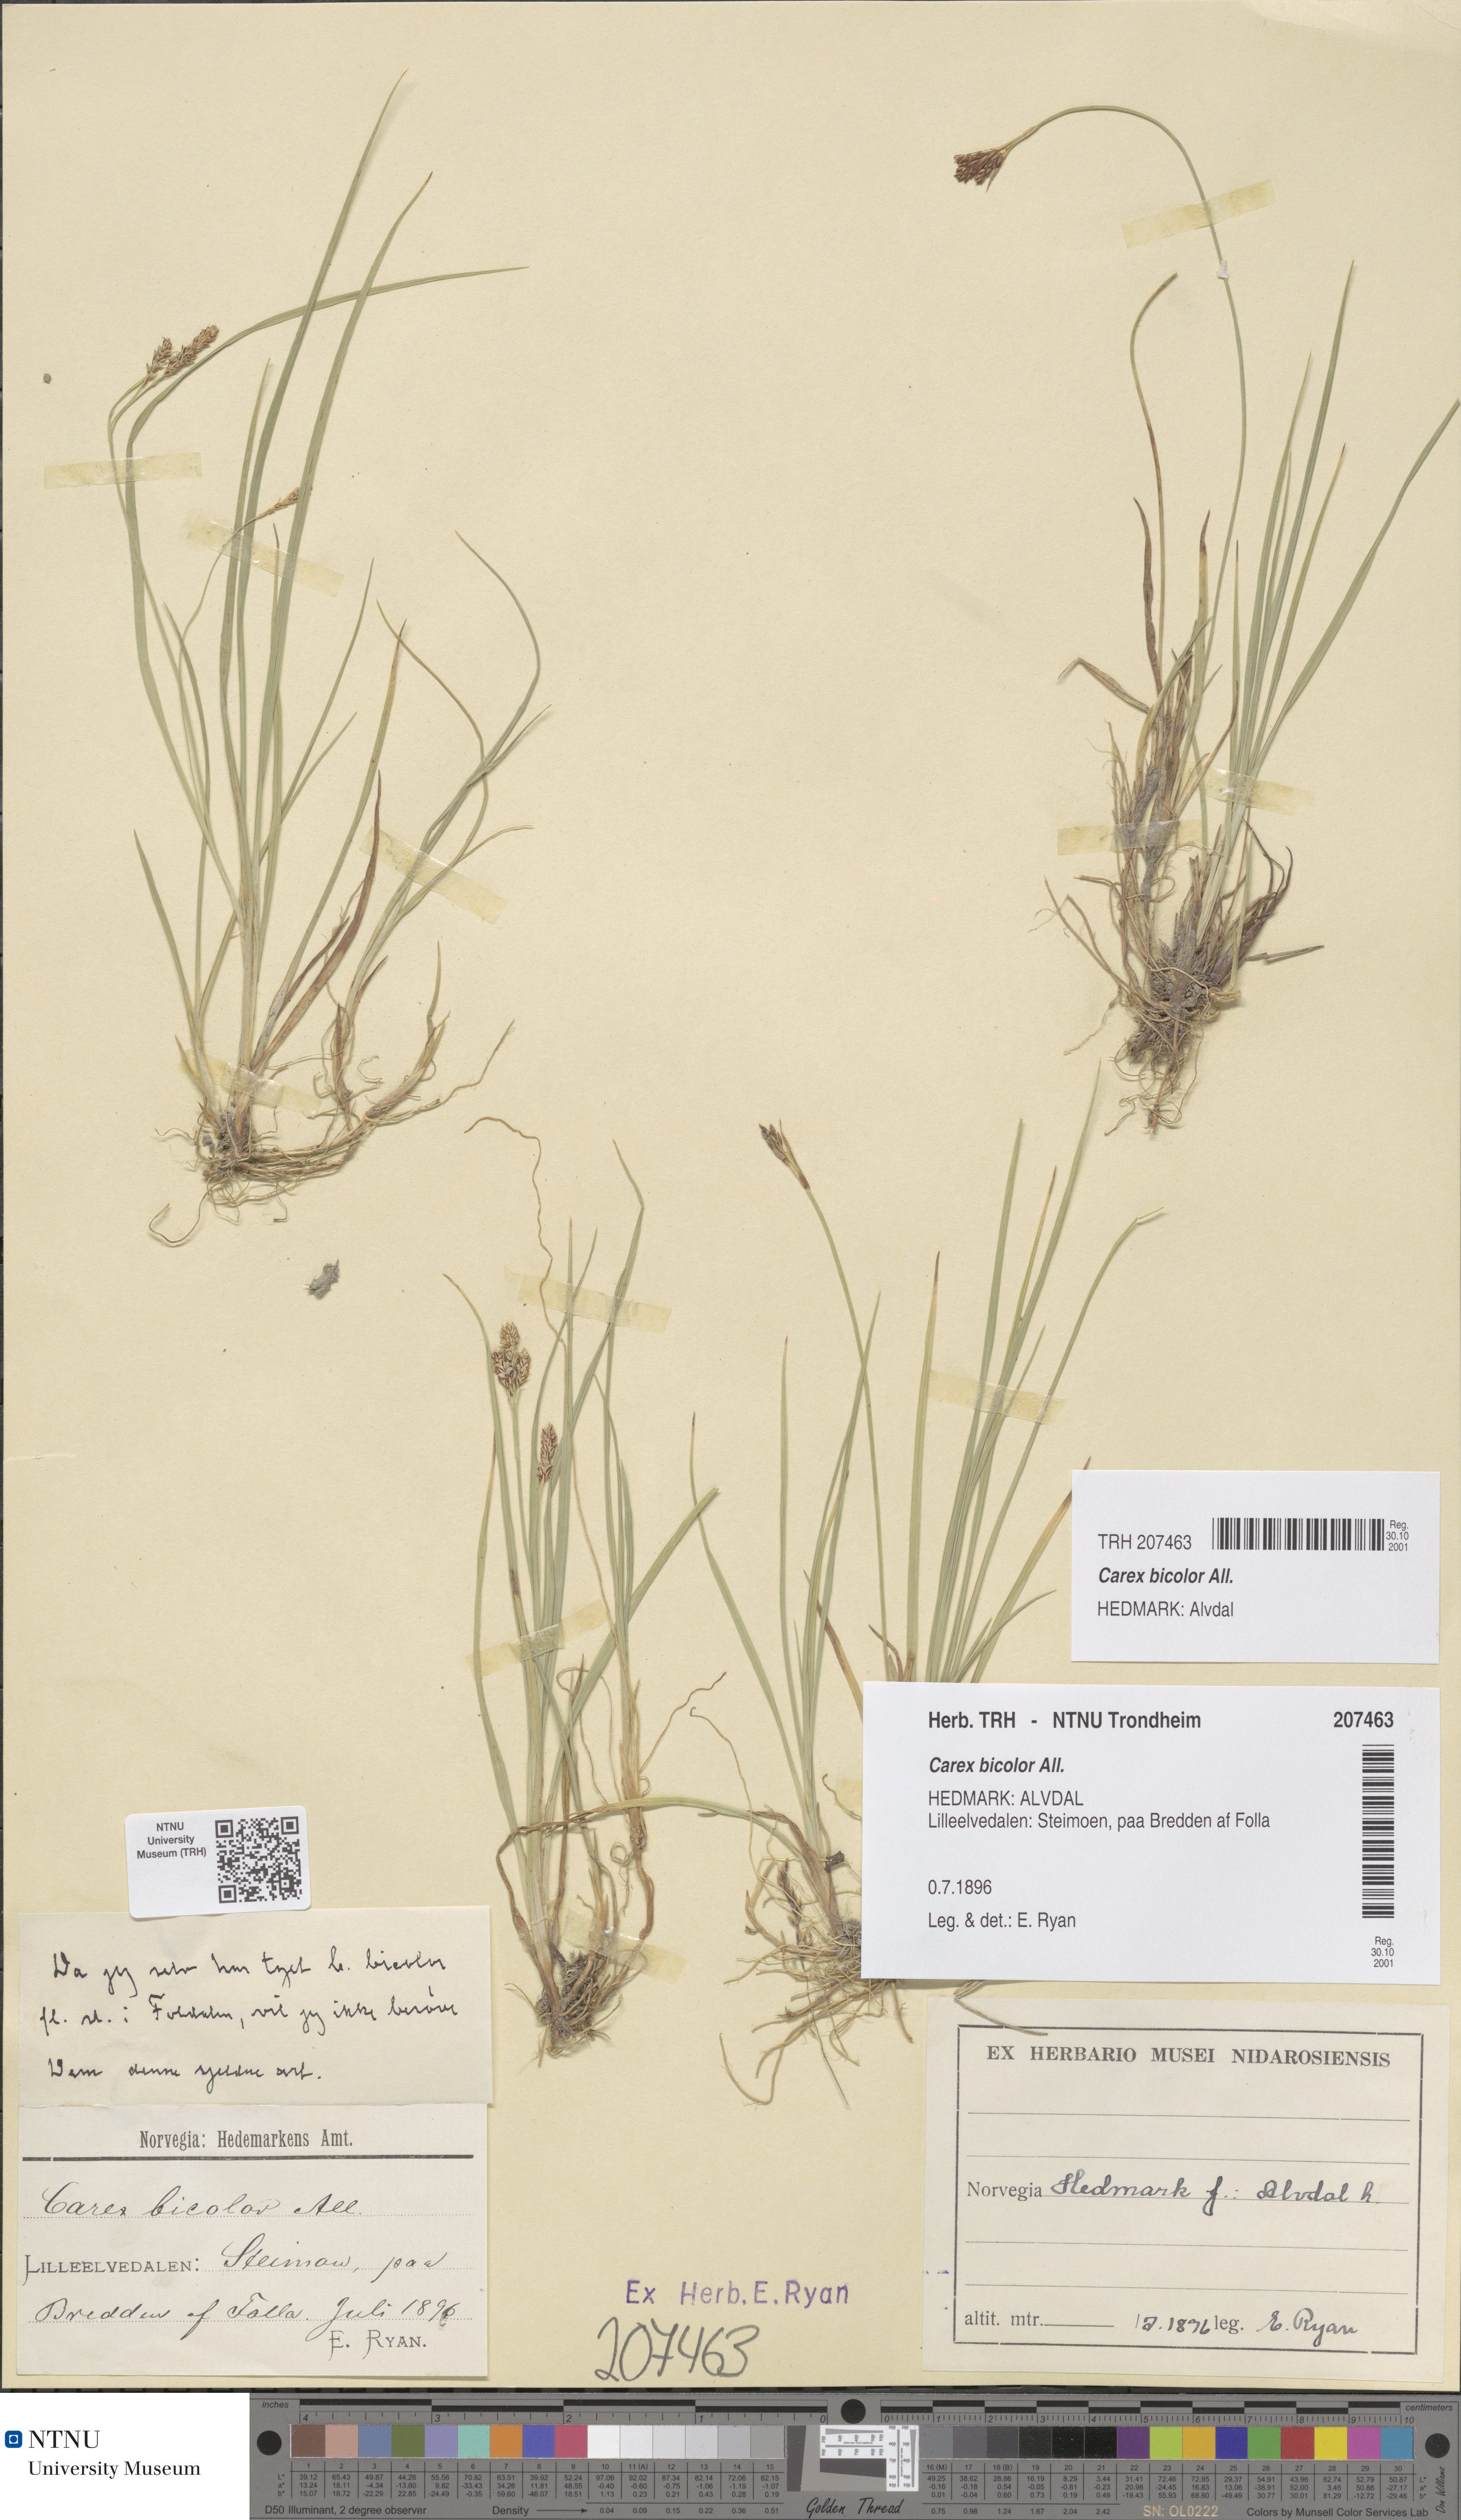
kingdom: Plantae
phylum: Tracheophyta
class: Liliopsida
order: Poales
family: Cyperaceae
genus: Carex
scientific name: Carex bicolor
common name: Bicoloured sedge
